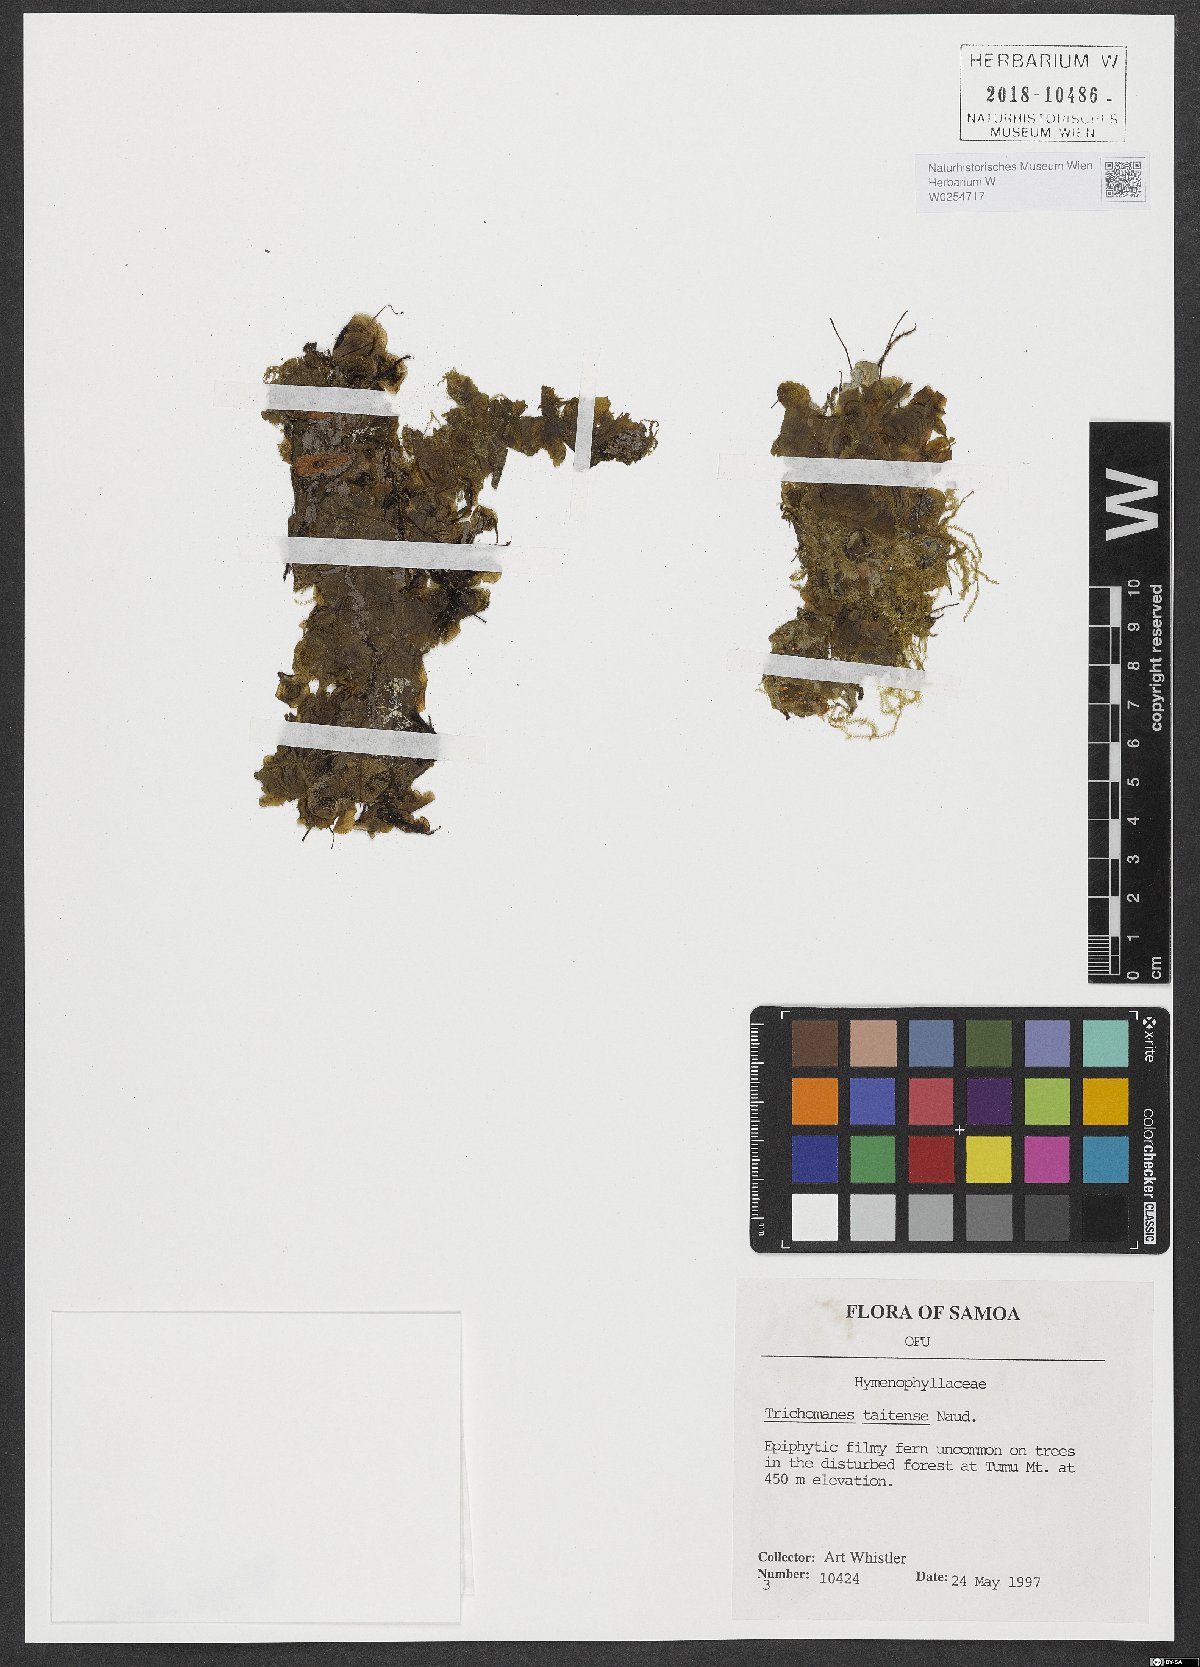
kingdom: Plantae
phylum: Tracheophyta
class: Polypodiopsida
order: Hymenophyllales
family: Hymenophyllaceae
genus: Didymoglossum
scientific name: Didymoglossum tahitense
